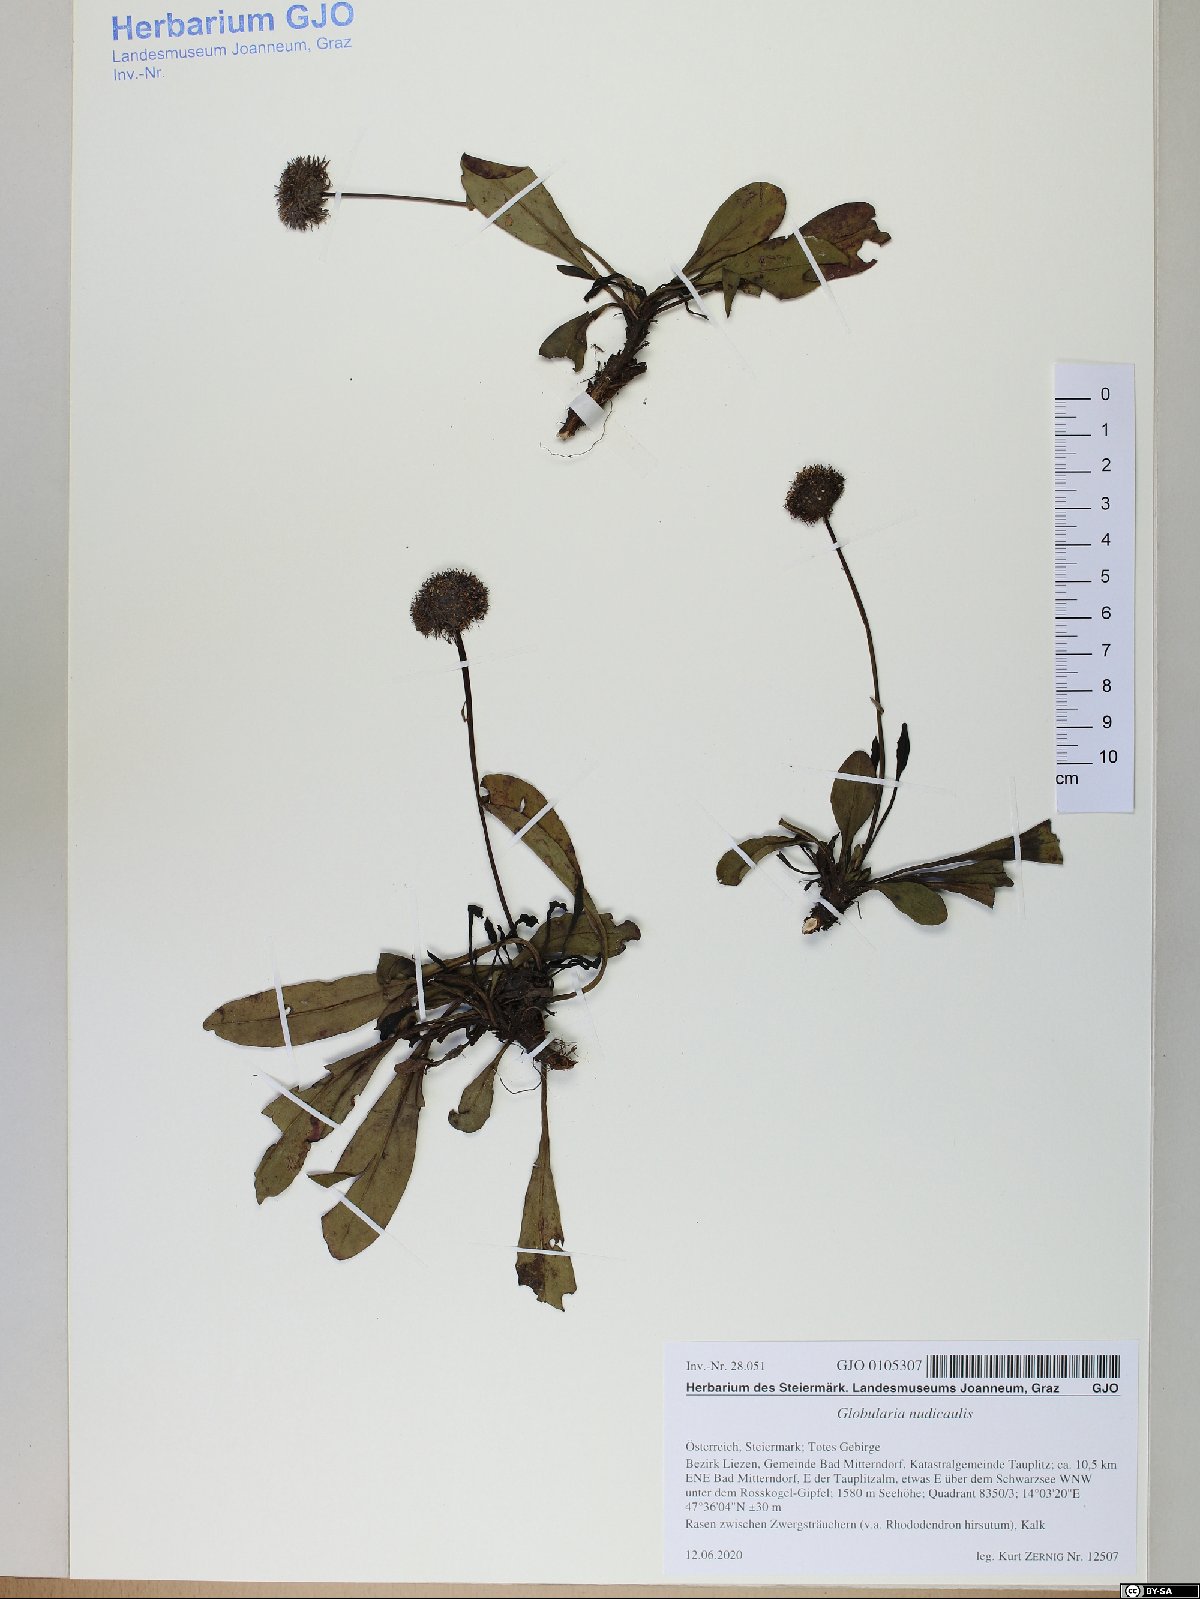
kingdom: Plantae
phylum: Tracheophyta
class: Magnoliopsida
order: Lamiales
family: Plantaginaceae
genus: Globularia
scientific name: Globularia nudicaulis
